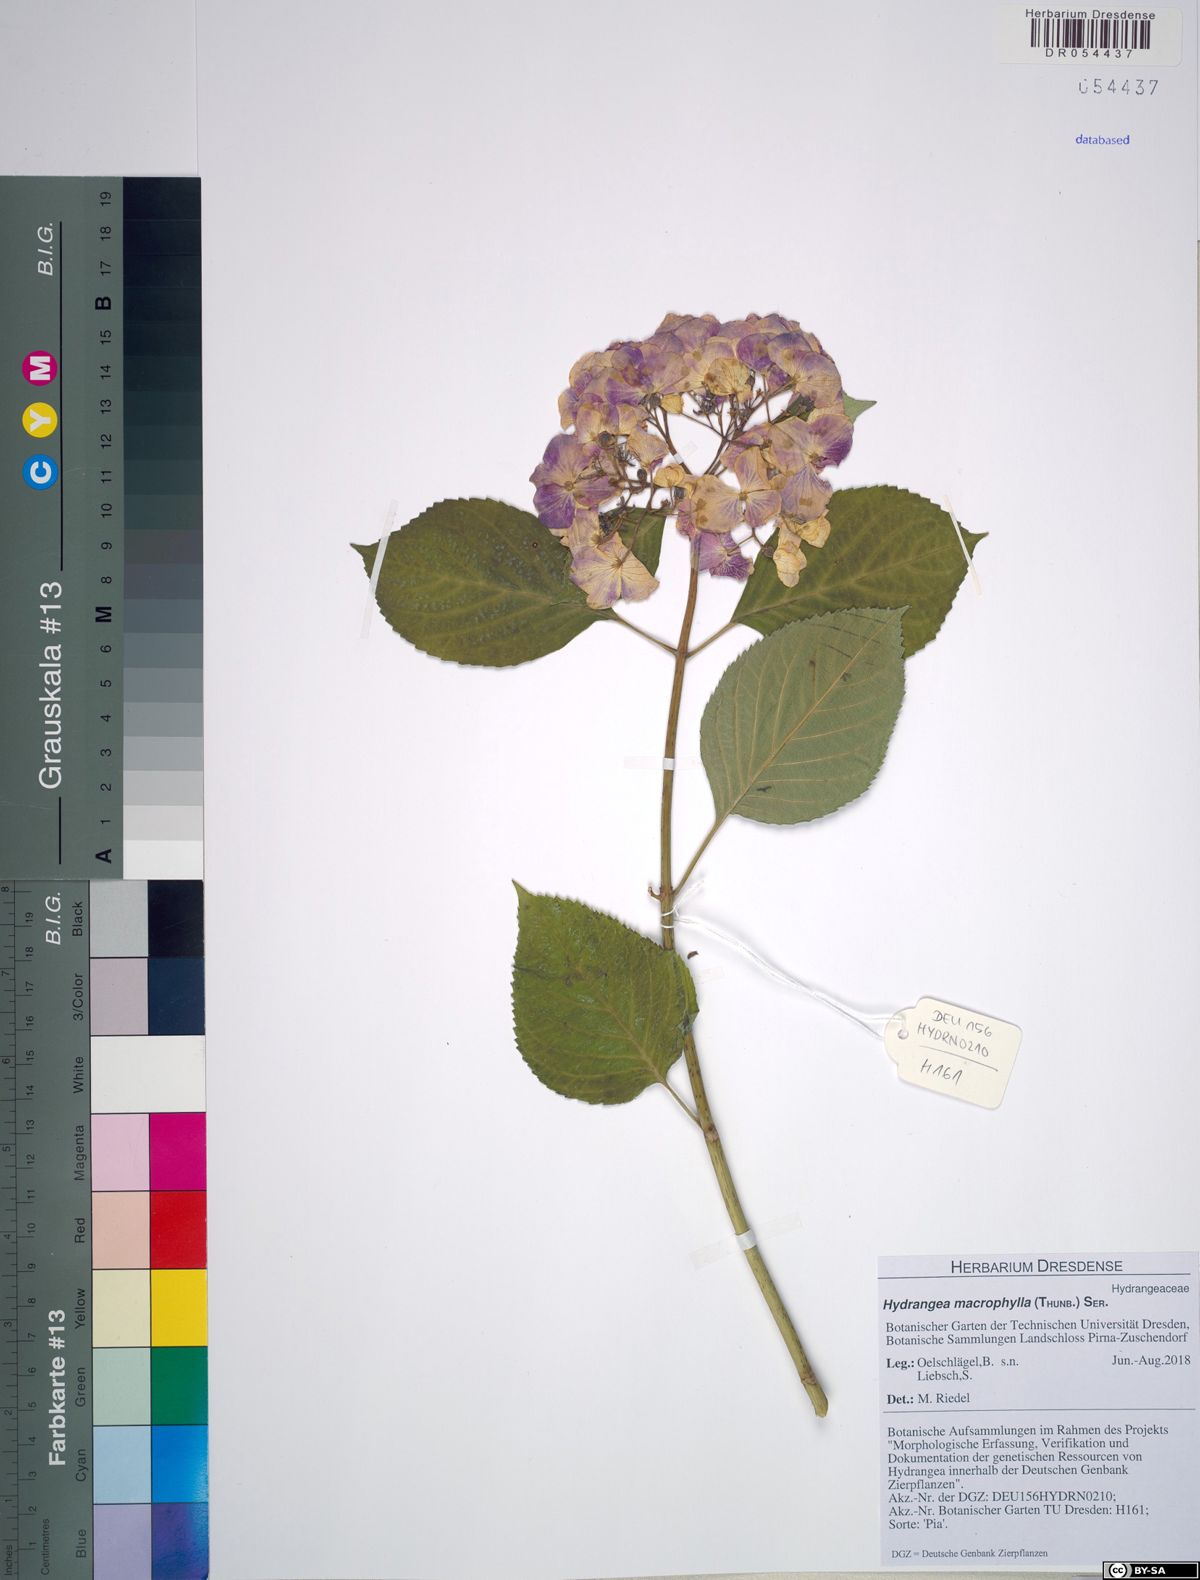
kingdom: Plantae
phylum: Tracheophyta
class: Magnoliopsida
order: Cornales
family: Hydrangeaceae
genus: Hydrangea
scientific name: Hydrangea macrophylla
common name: Hydrangea
